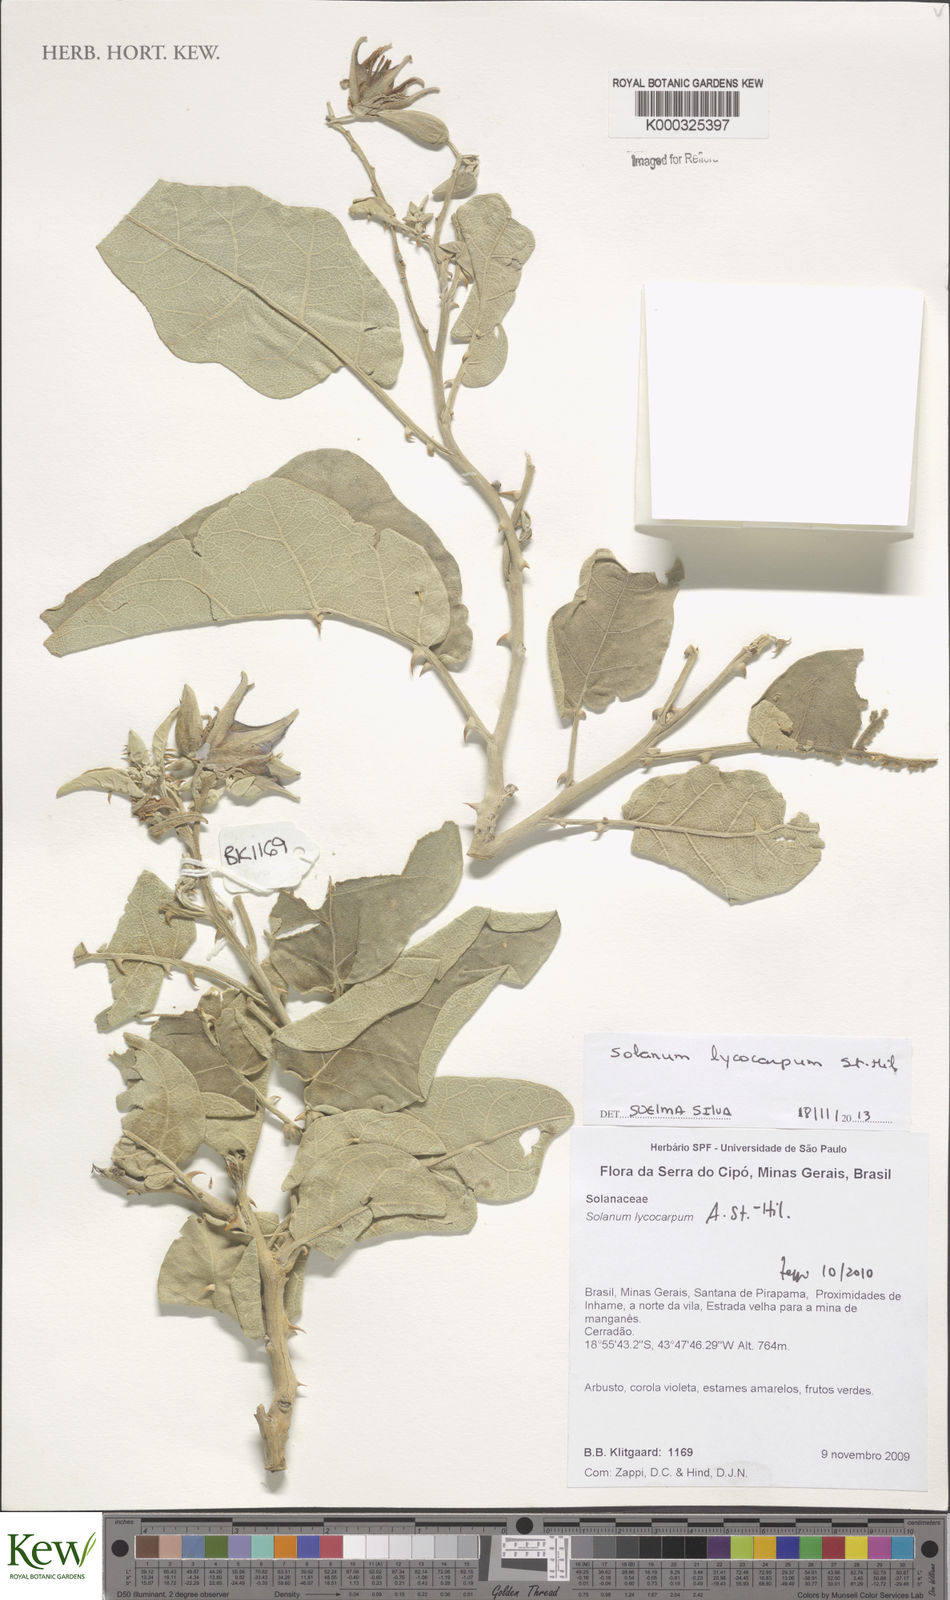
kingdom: Plantae
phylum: Tracheophyta
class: Magnoliopsida
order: Solanales
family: Solanaceae
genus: Solanum
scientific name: Solanum lycocarpum
